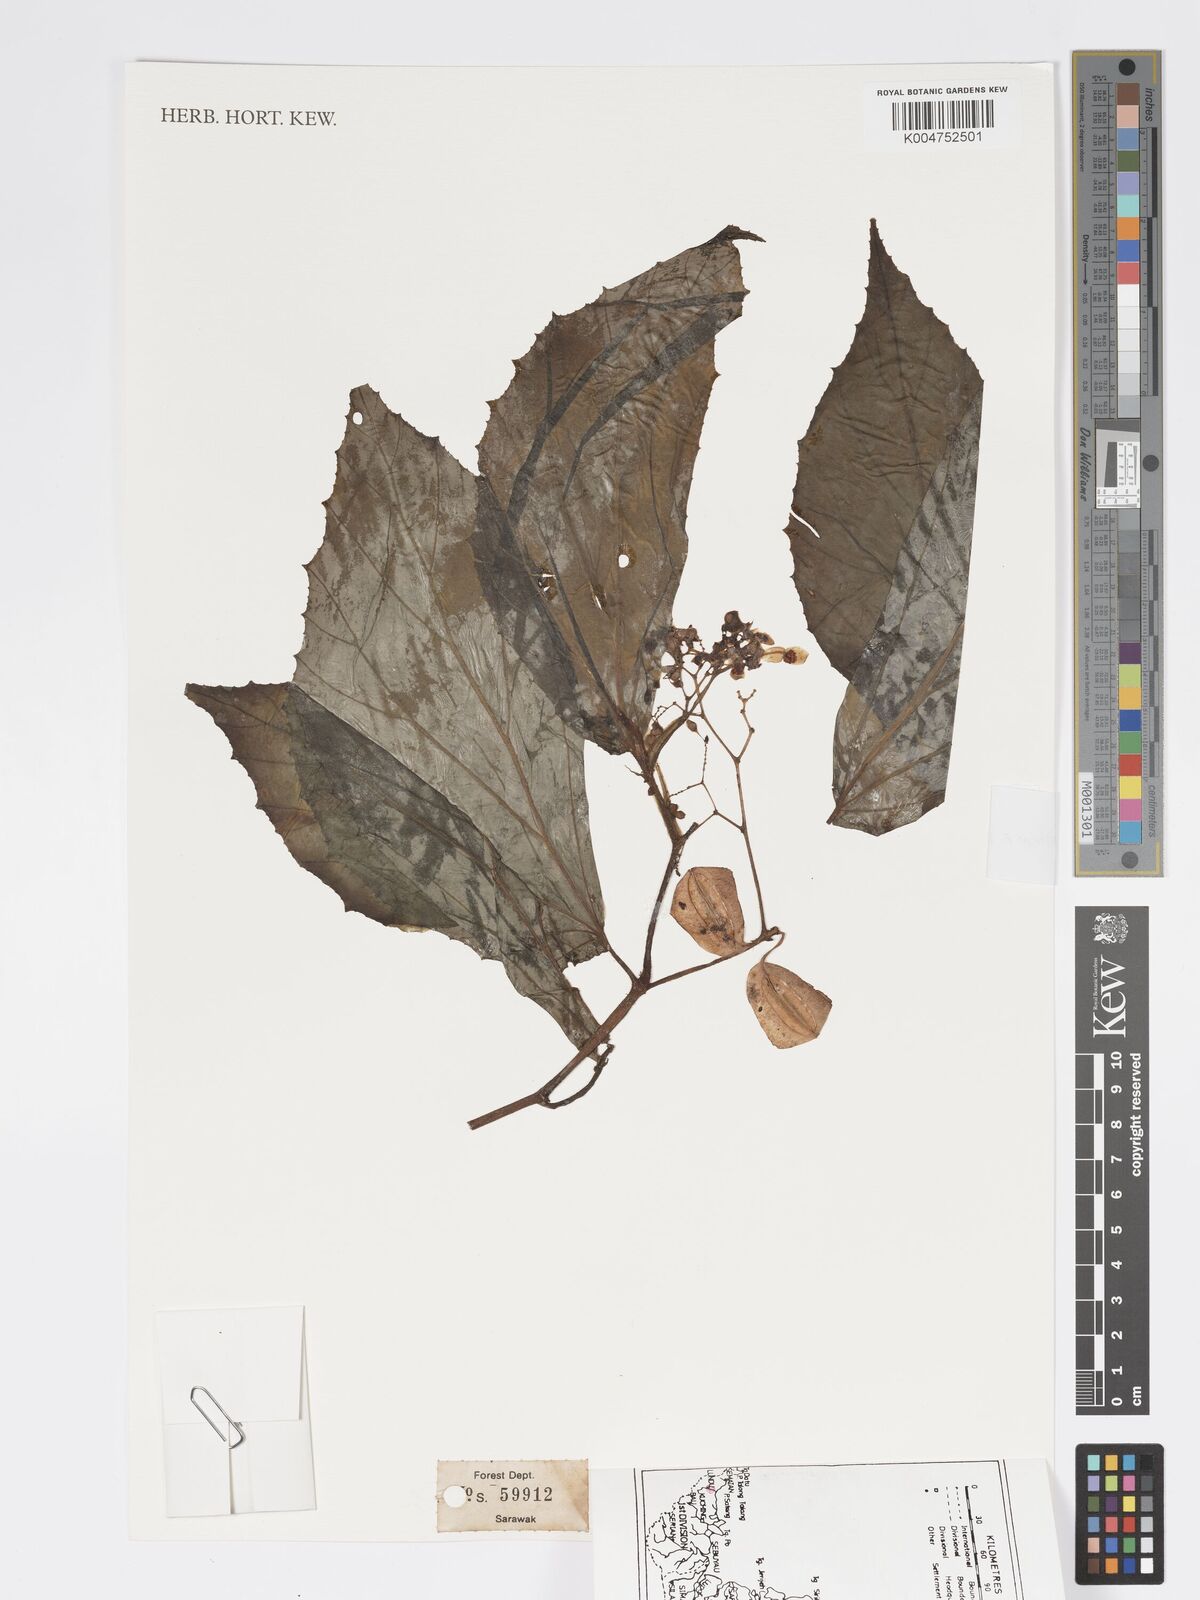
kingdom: Plantae
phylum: Tracheophyta
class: Magnoliopsida
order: Cucurbitales
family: Begoniaceae
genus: Begonia
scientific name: Begonia paoana
